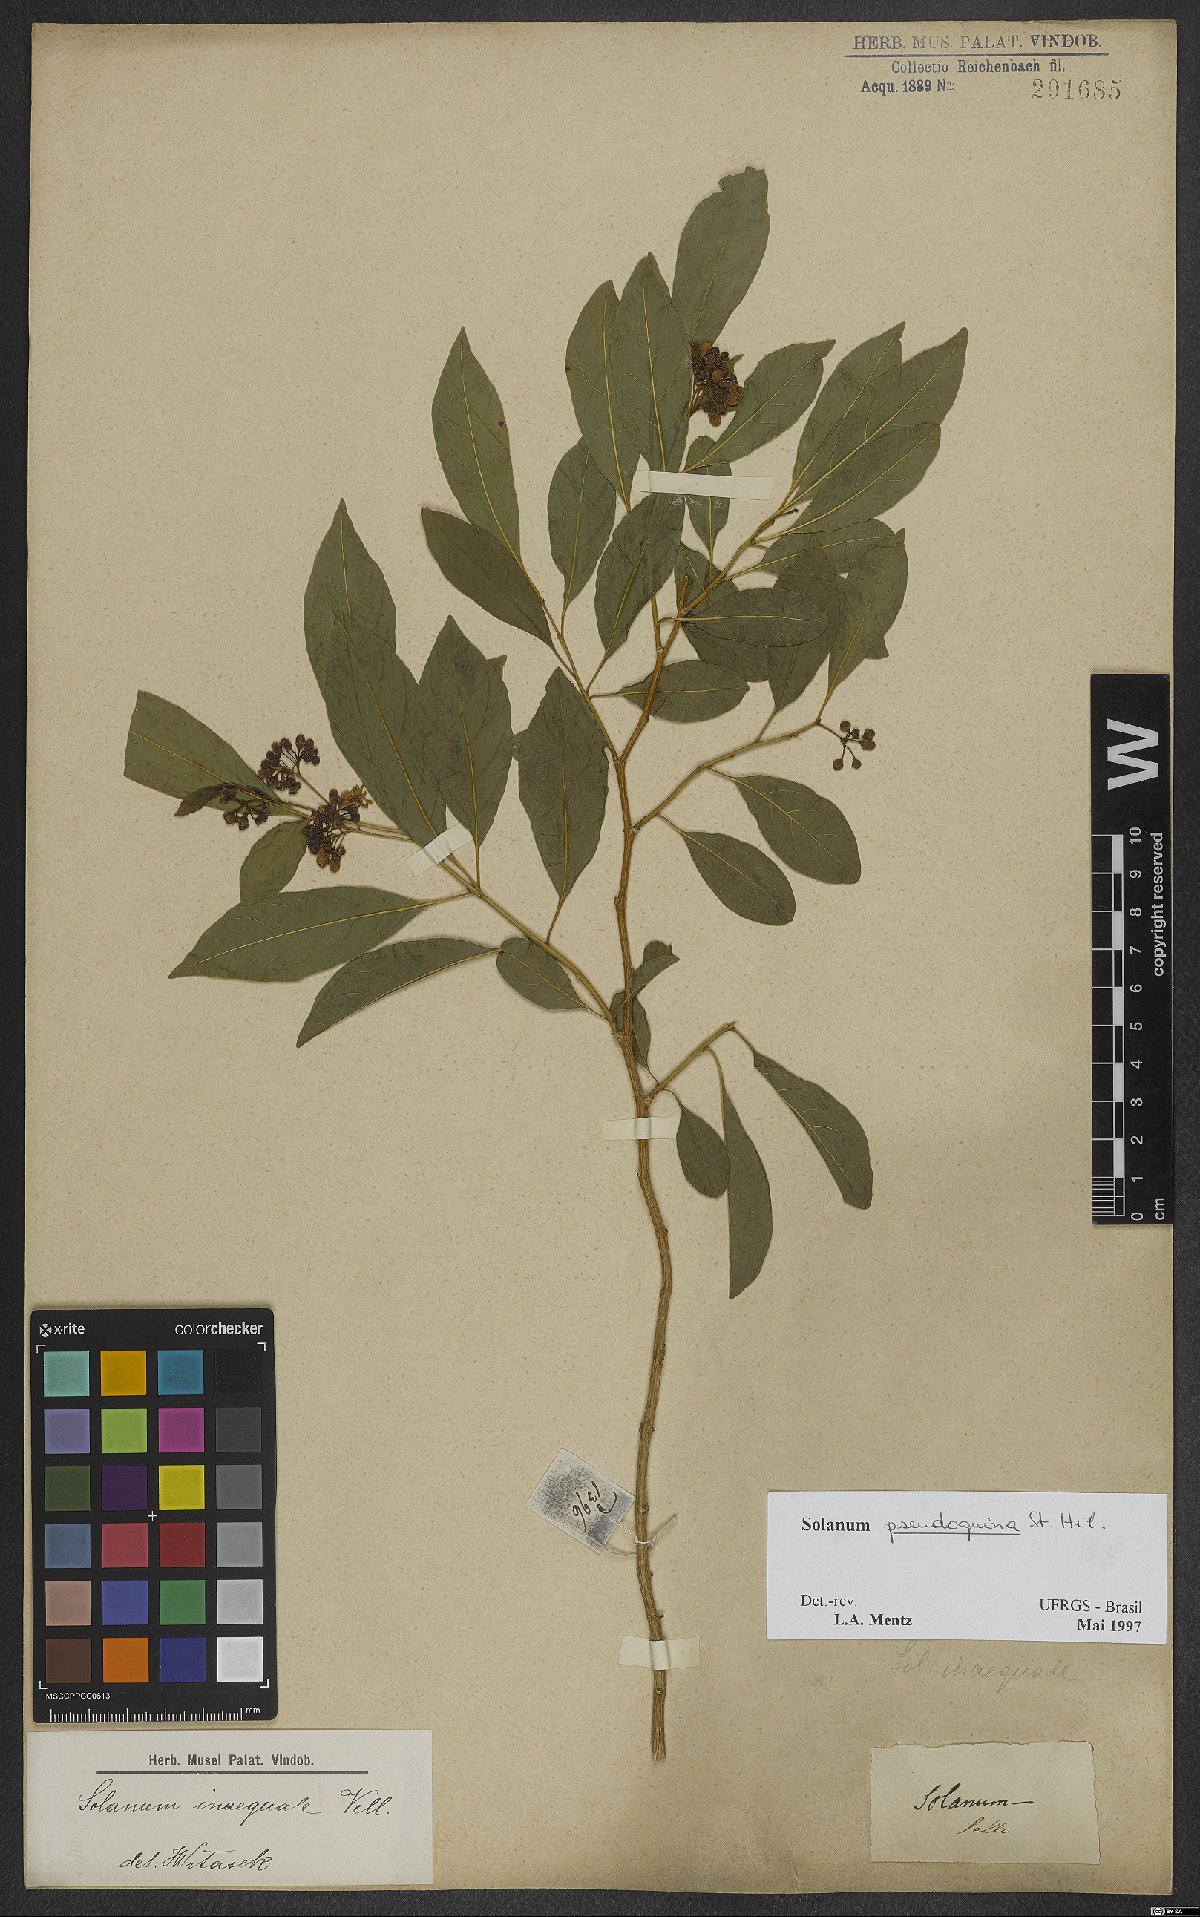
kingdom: Plantae
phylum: Tracheophyta
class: Magnoliopsida
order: Solanales
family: Solanaceae
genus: Solanum
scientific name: Solanum pseudoquina
